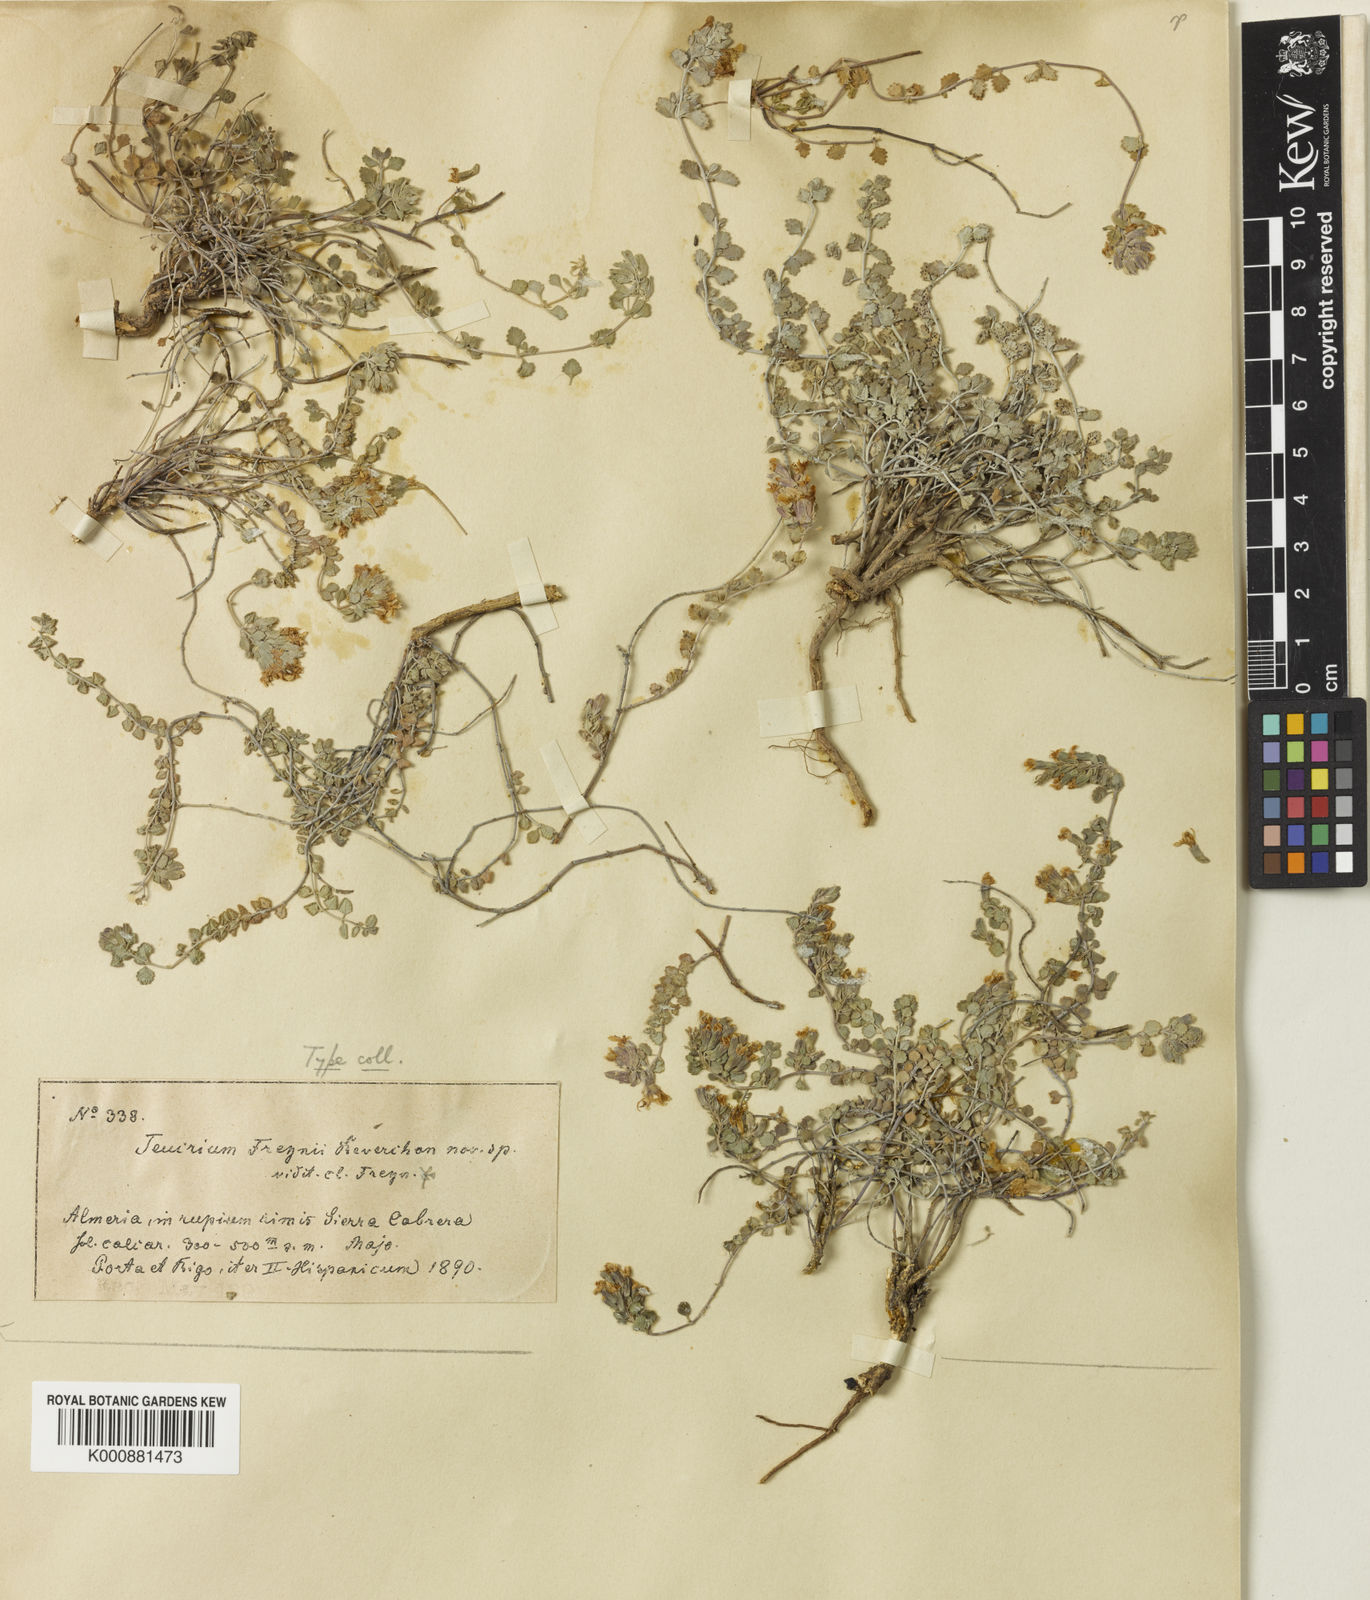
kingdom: Plantae
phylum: Tracheophyta
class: Magnoliopsida
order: Lamiales
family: Lamiaceae
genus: Teucrium
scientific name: Teucrium freynii
